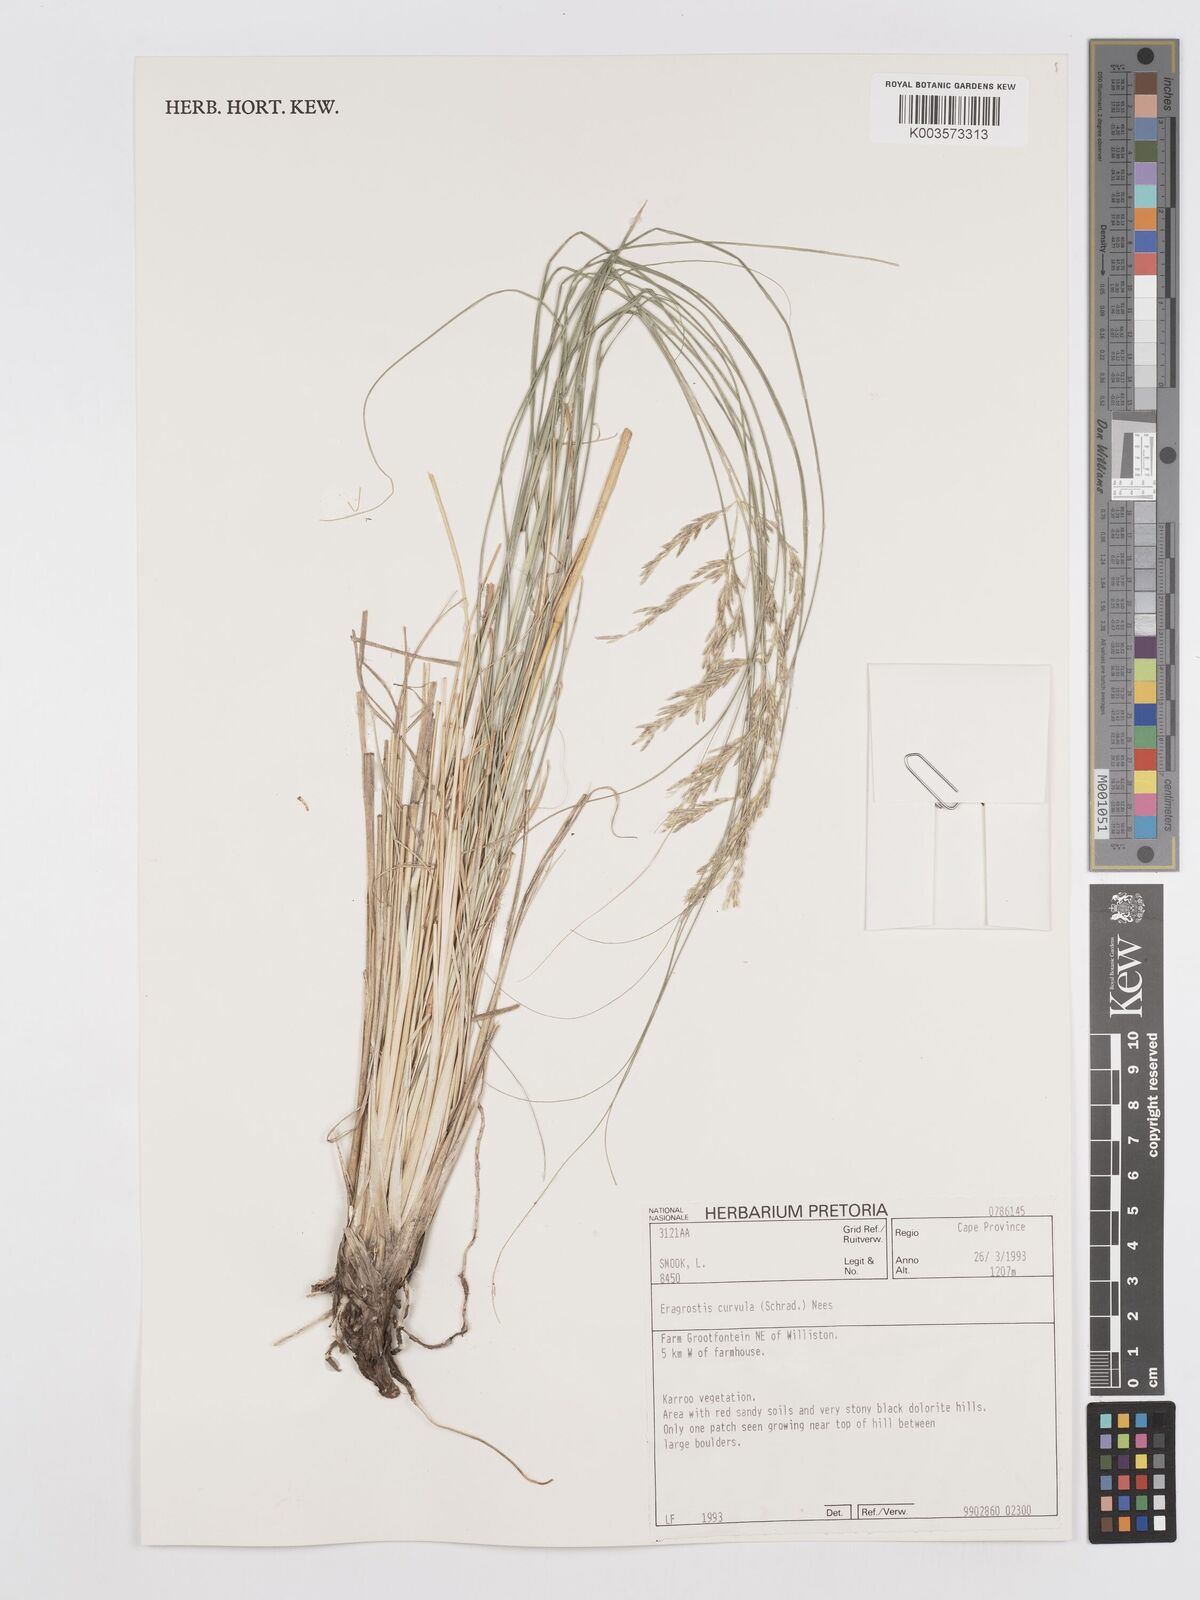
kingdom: Plantae
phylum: Tracheophyta
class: Liliopsida
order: Poales
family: Poaceae
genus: Eragrostis
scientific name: Eragrostis curvula
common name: African love-grass
